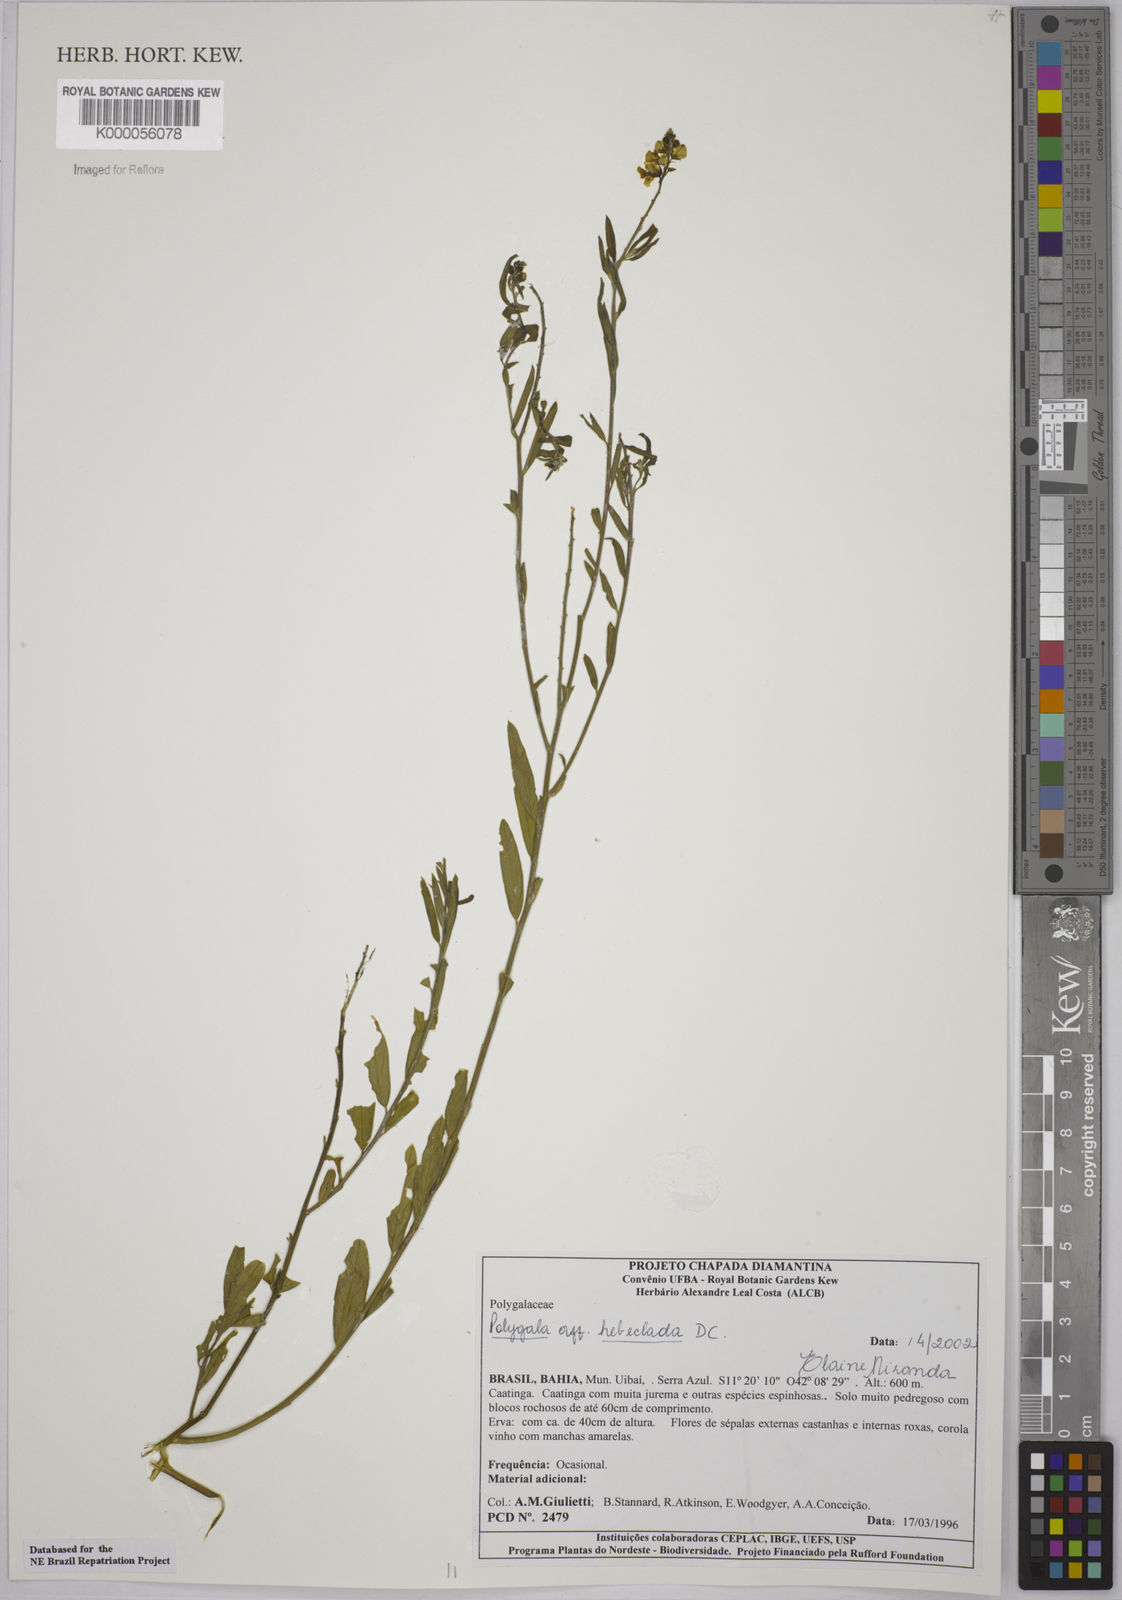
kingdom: Plantae
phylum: Tracheophyta
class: Magnoliopsida
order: Fabales
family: Polygalaceae
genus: Asemeia
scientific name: Asemeia hebeclada
